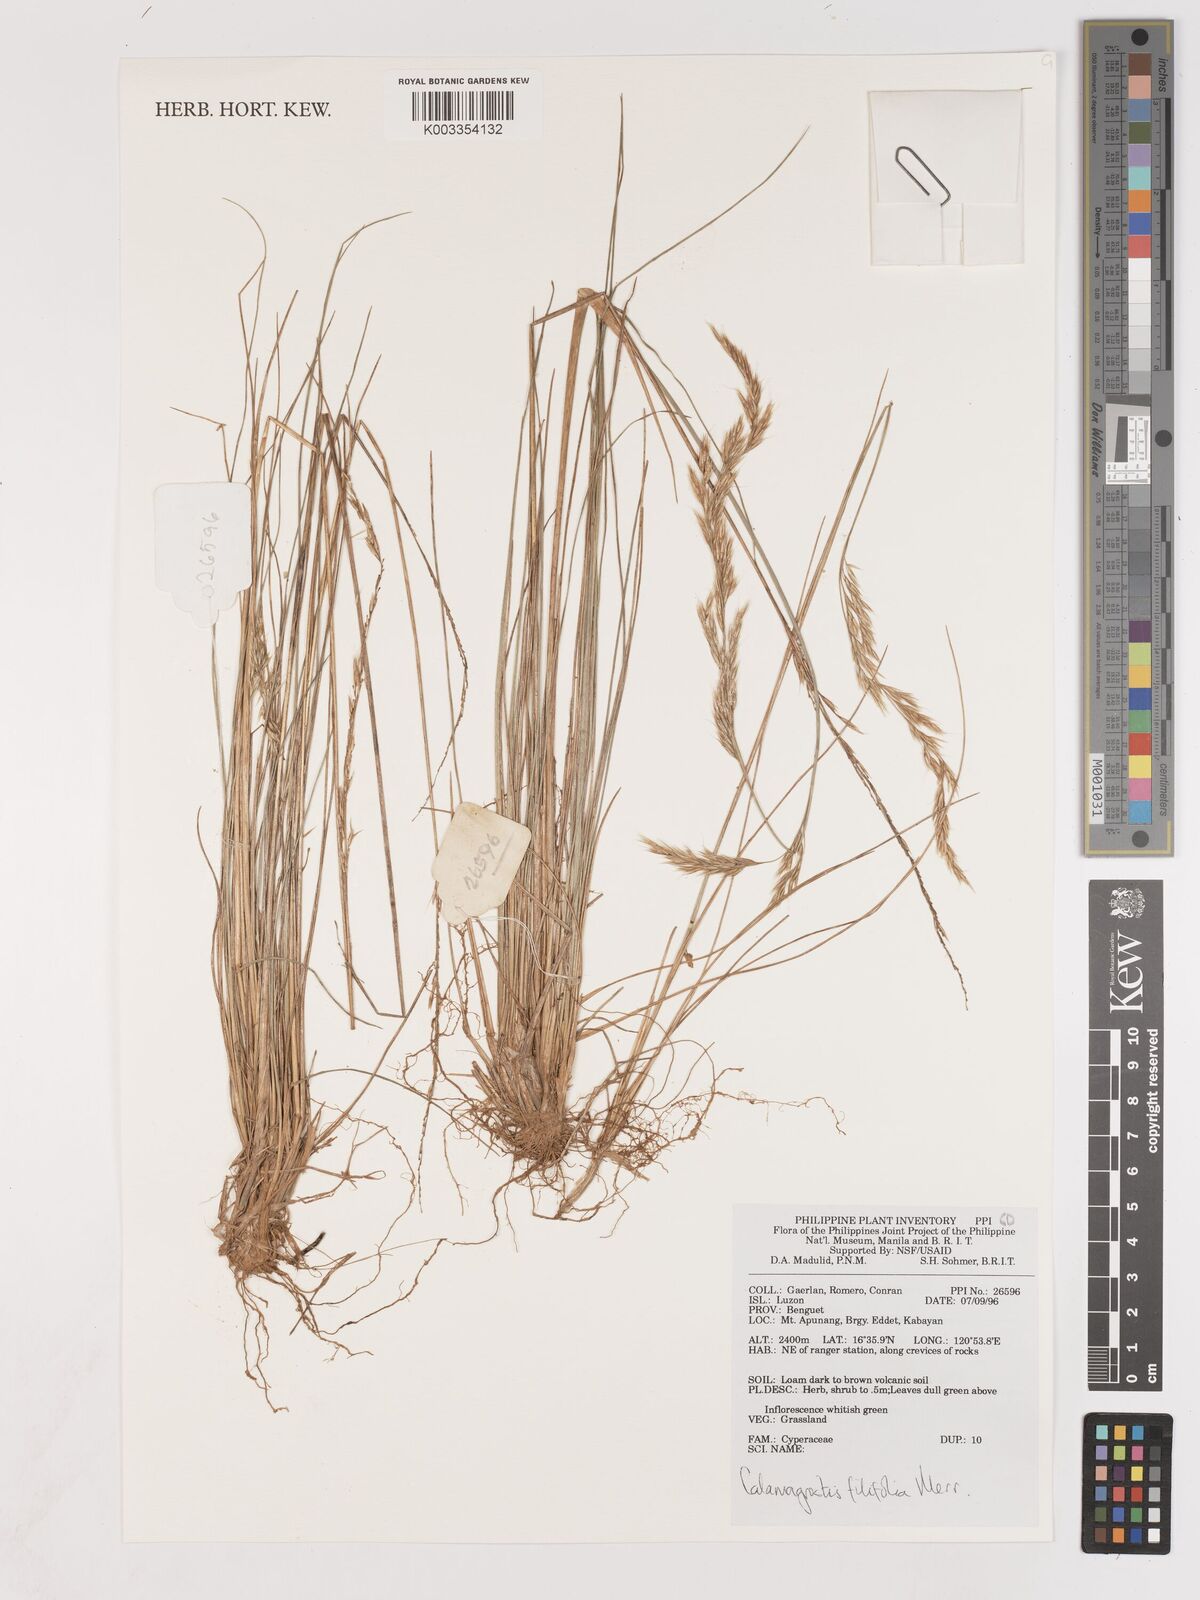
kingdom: Plantae
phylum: Tracheophyta
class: Liliopsida
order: Poales
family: Poaceae
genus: Calamagrostis
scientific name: Calamagrostis filifolia
